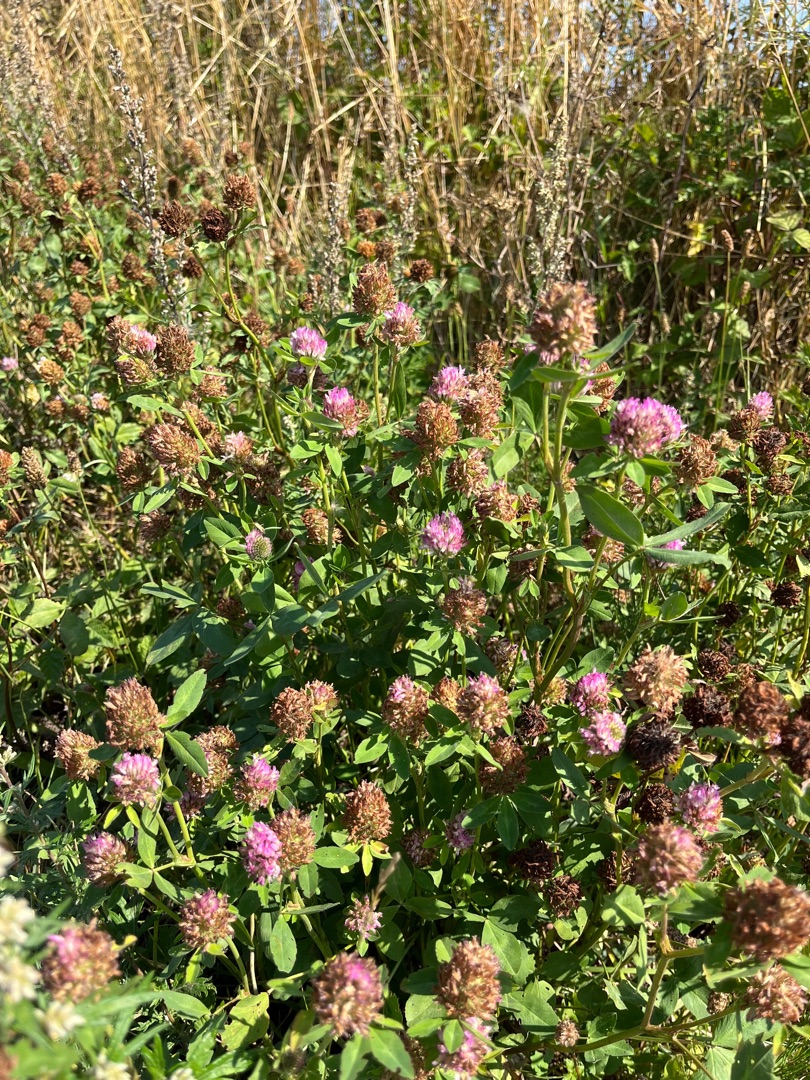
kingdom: Plantae
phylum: Tracheophyta
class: Magnoliopsida
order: Fabales
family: Fabaceae
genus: Trifolium
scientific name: Trifolium pratense
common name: Rød-kløver
